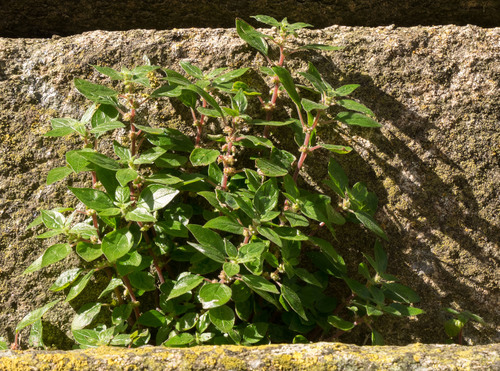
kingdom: Plantae
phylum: Tracheophyta
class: Magnoliopsida
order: Rosales
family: Urticaceae
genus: Parietaria
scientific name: Parietaria judaica
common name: Pellitory-of-the-wall
